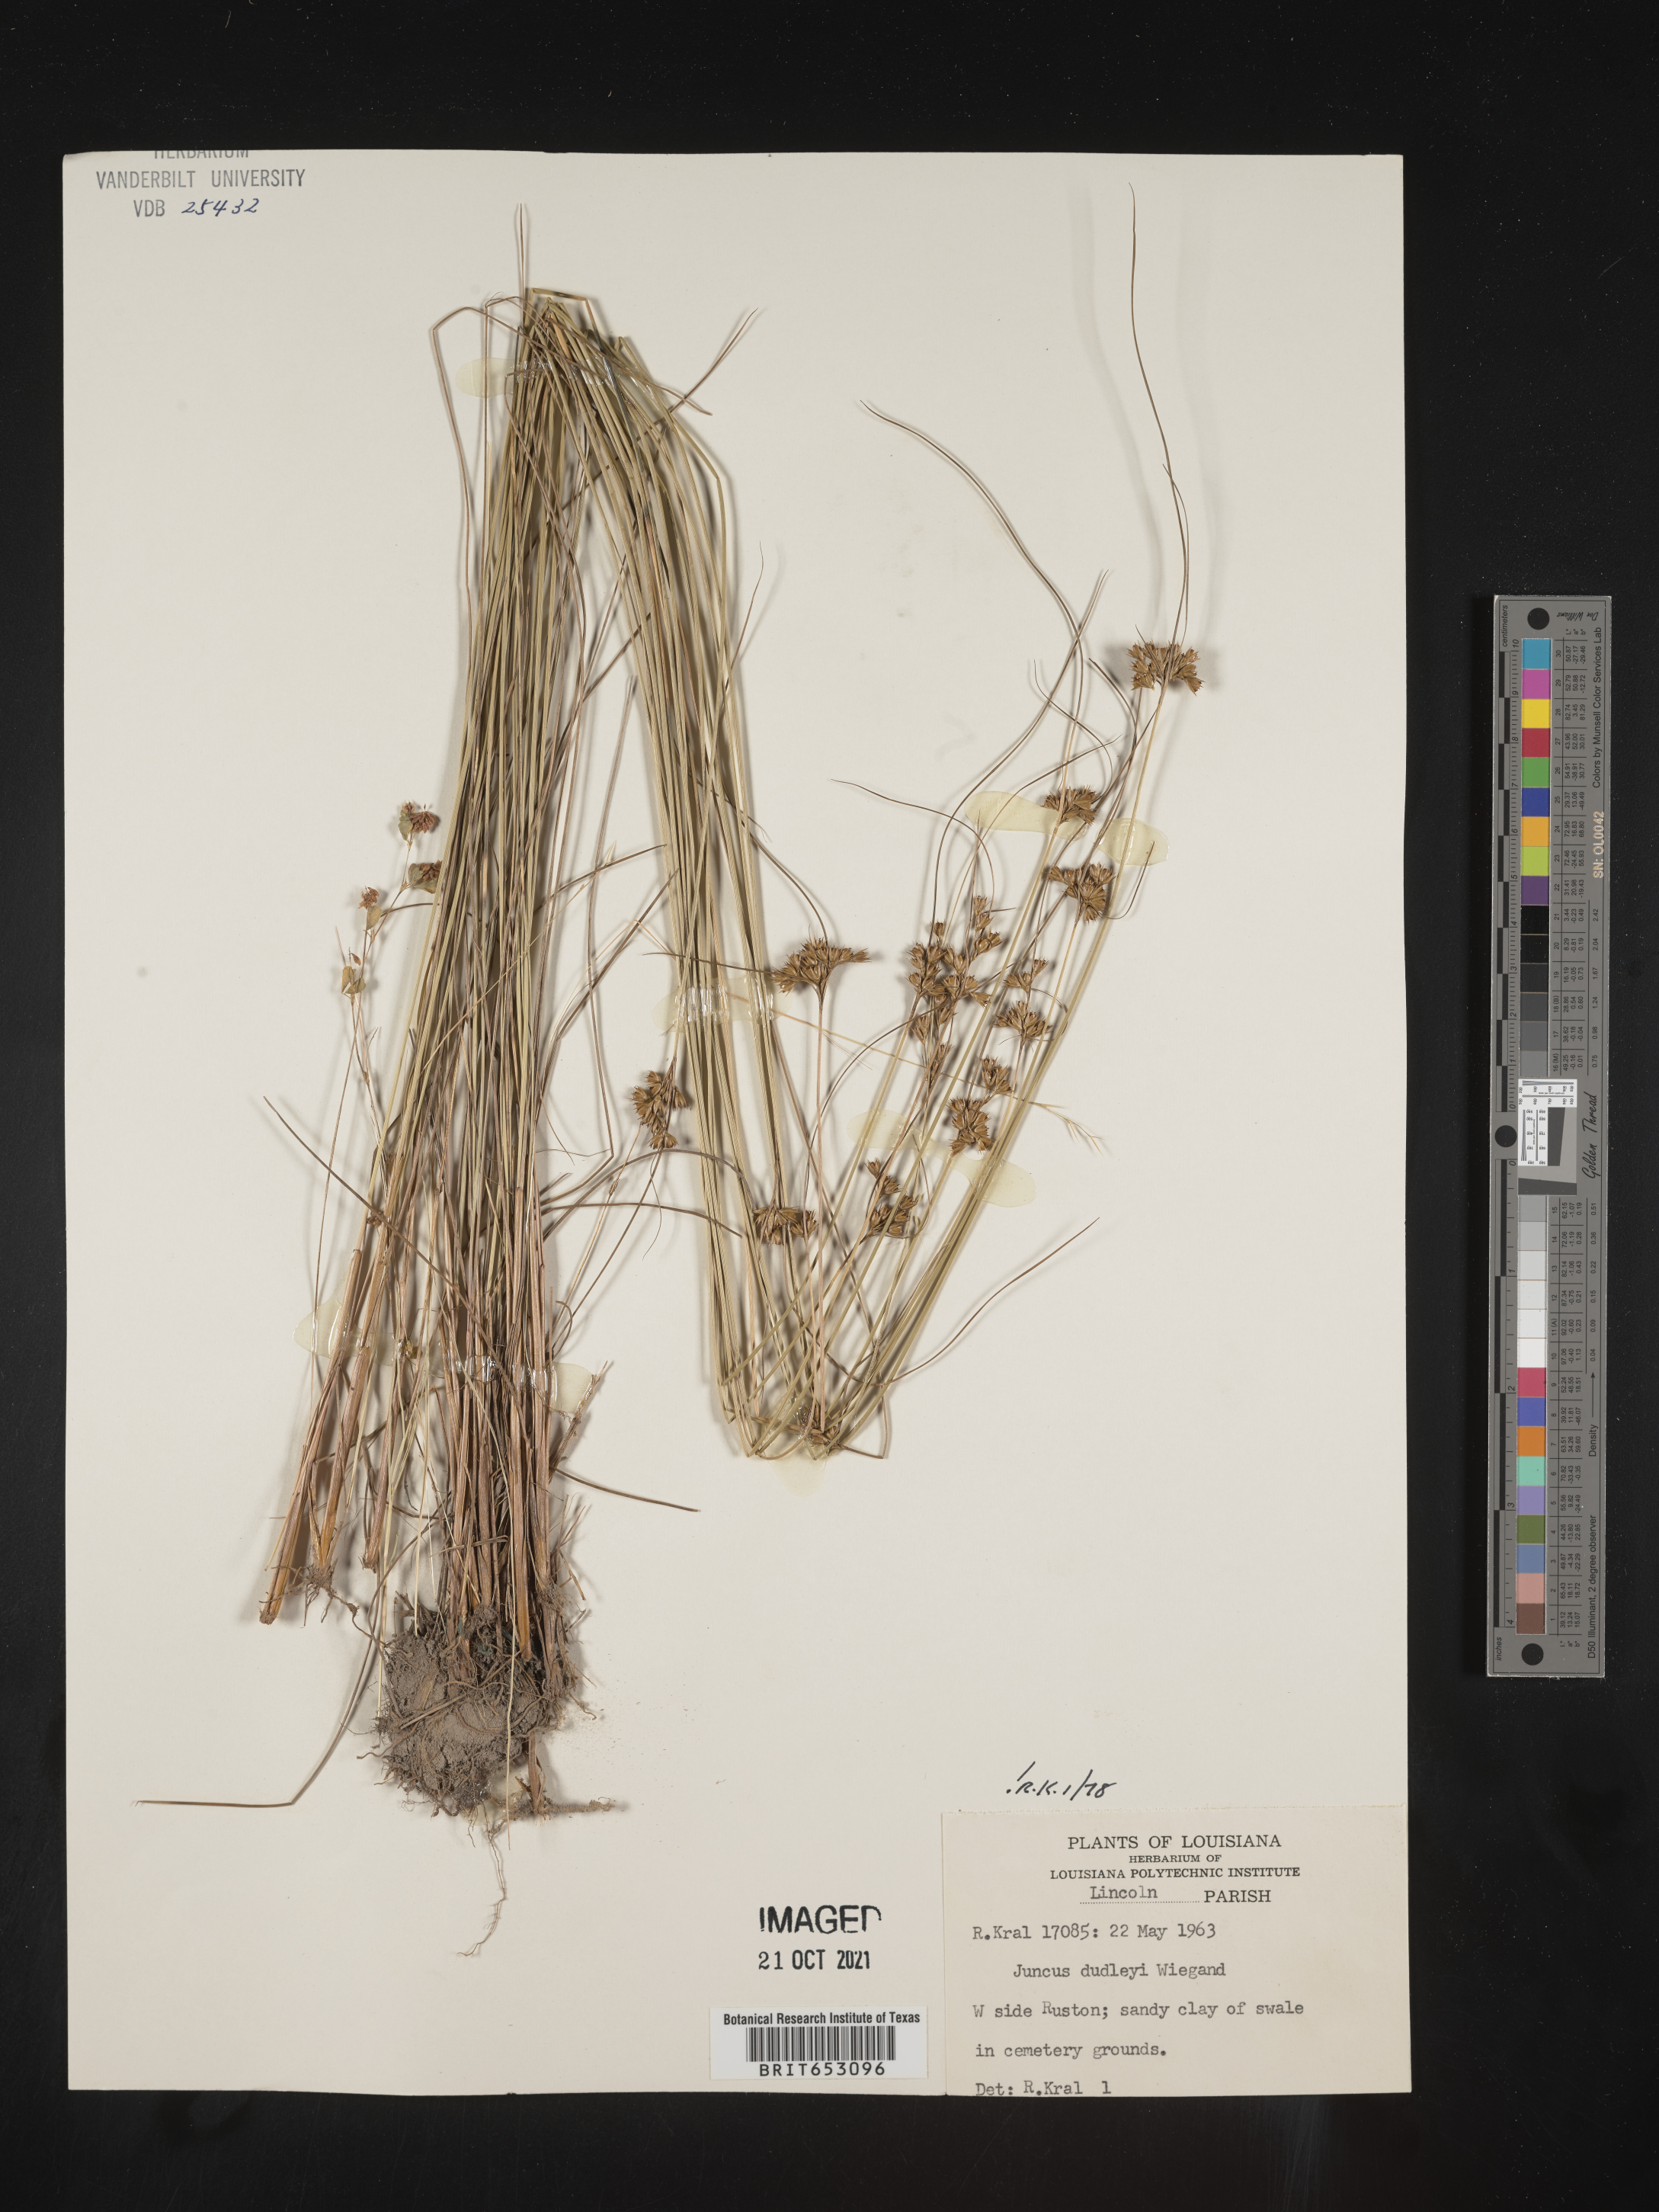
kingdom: Plantae
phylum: Tracheophyta
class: Liliopsida
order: Poales
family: Juncaceae
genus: Juncus
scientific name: Juncus dudleyi
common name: Dudley's rush
